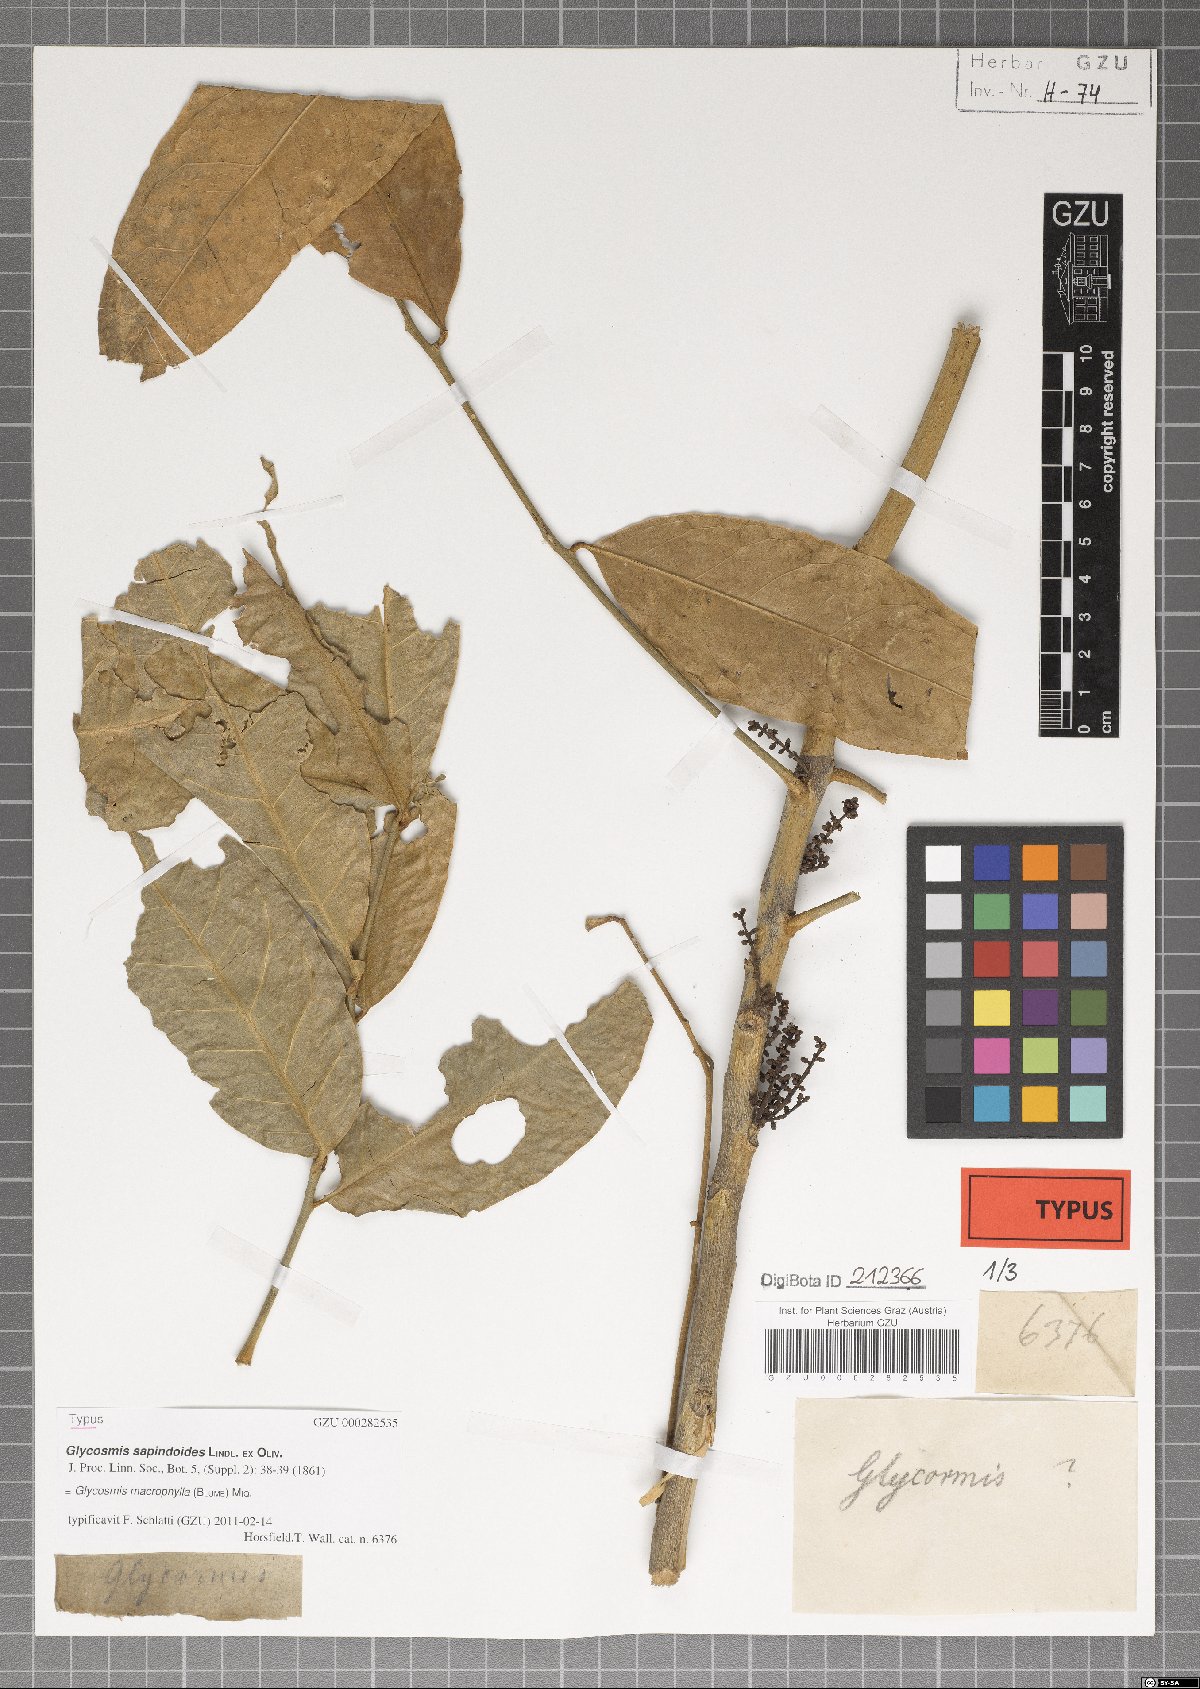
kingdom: Plantae
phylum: Tracheophyta
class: Magnoliopsida
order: Sapindales
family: Rutaceae
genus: Glycosmis
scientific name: Glycosmis macrophylla
